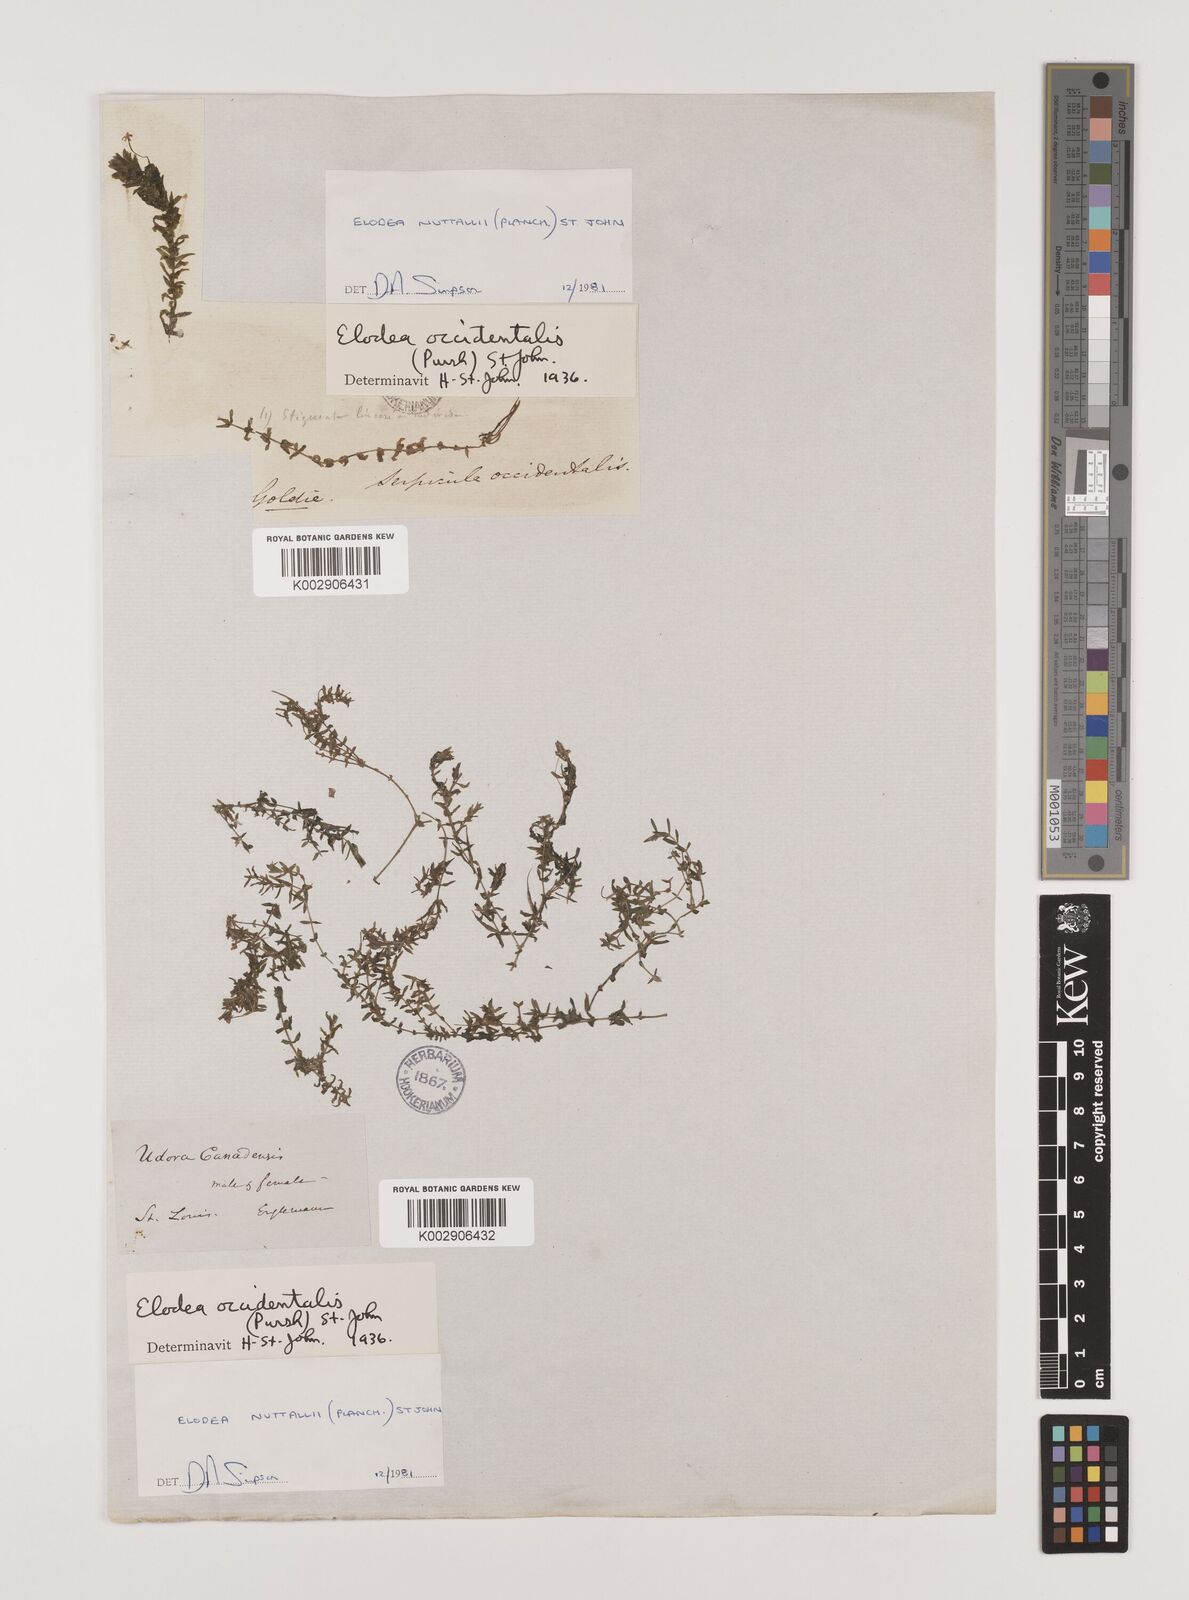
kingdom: Plantae
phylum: Tracheophyta
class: Liliopsida
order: Alismatales
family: Hydrocharitaceae
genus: Elodea
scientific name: Elodea nuttallii
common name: Nuttall's waterweed
